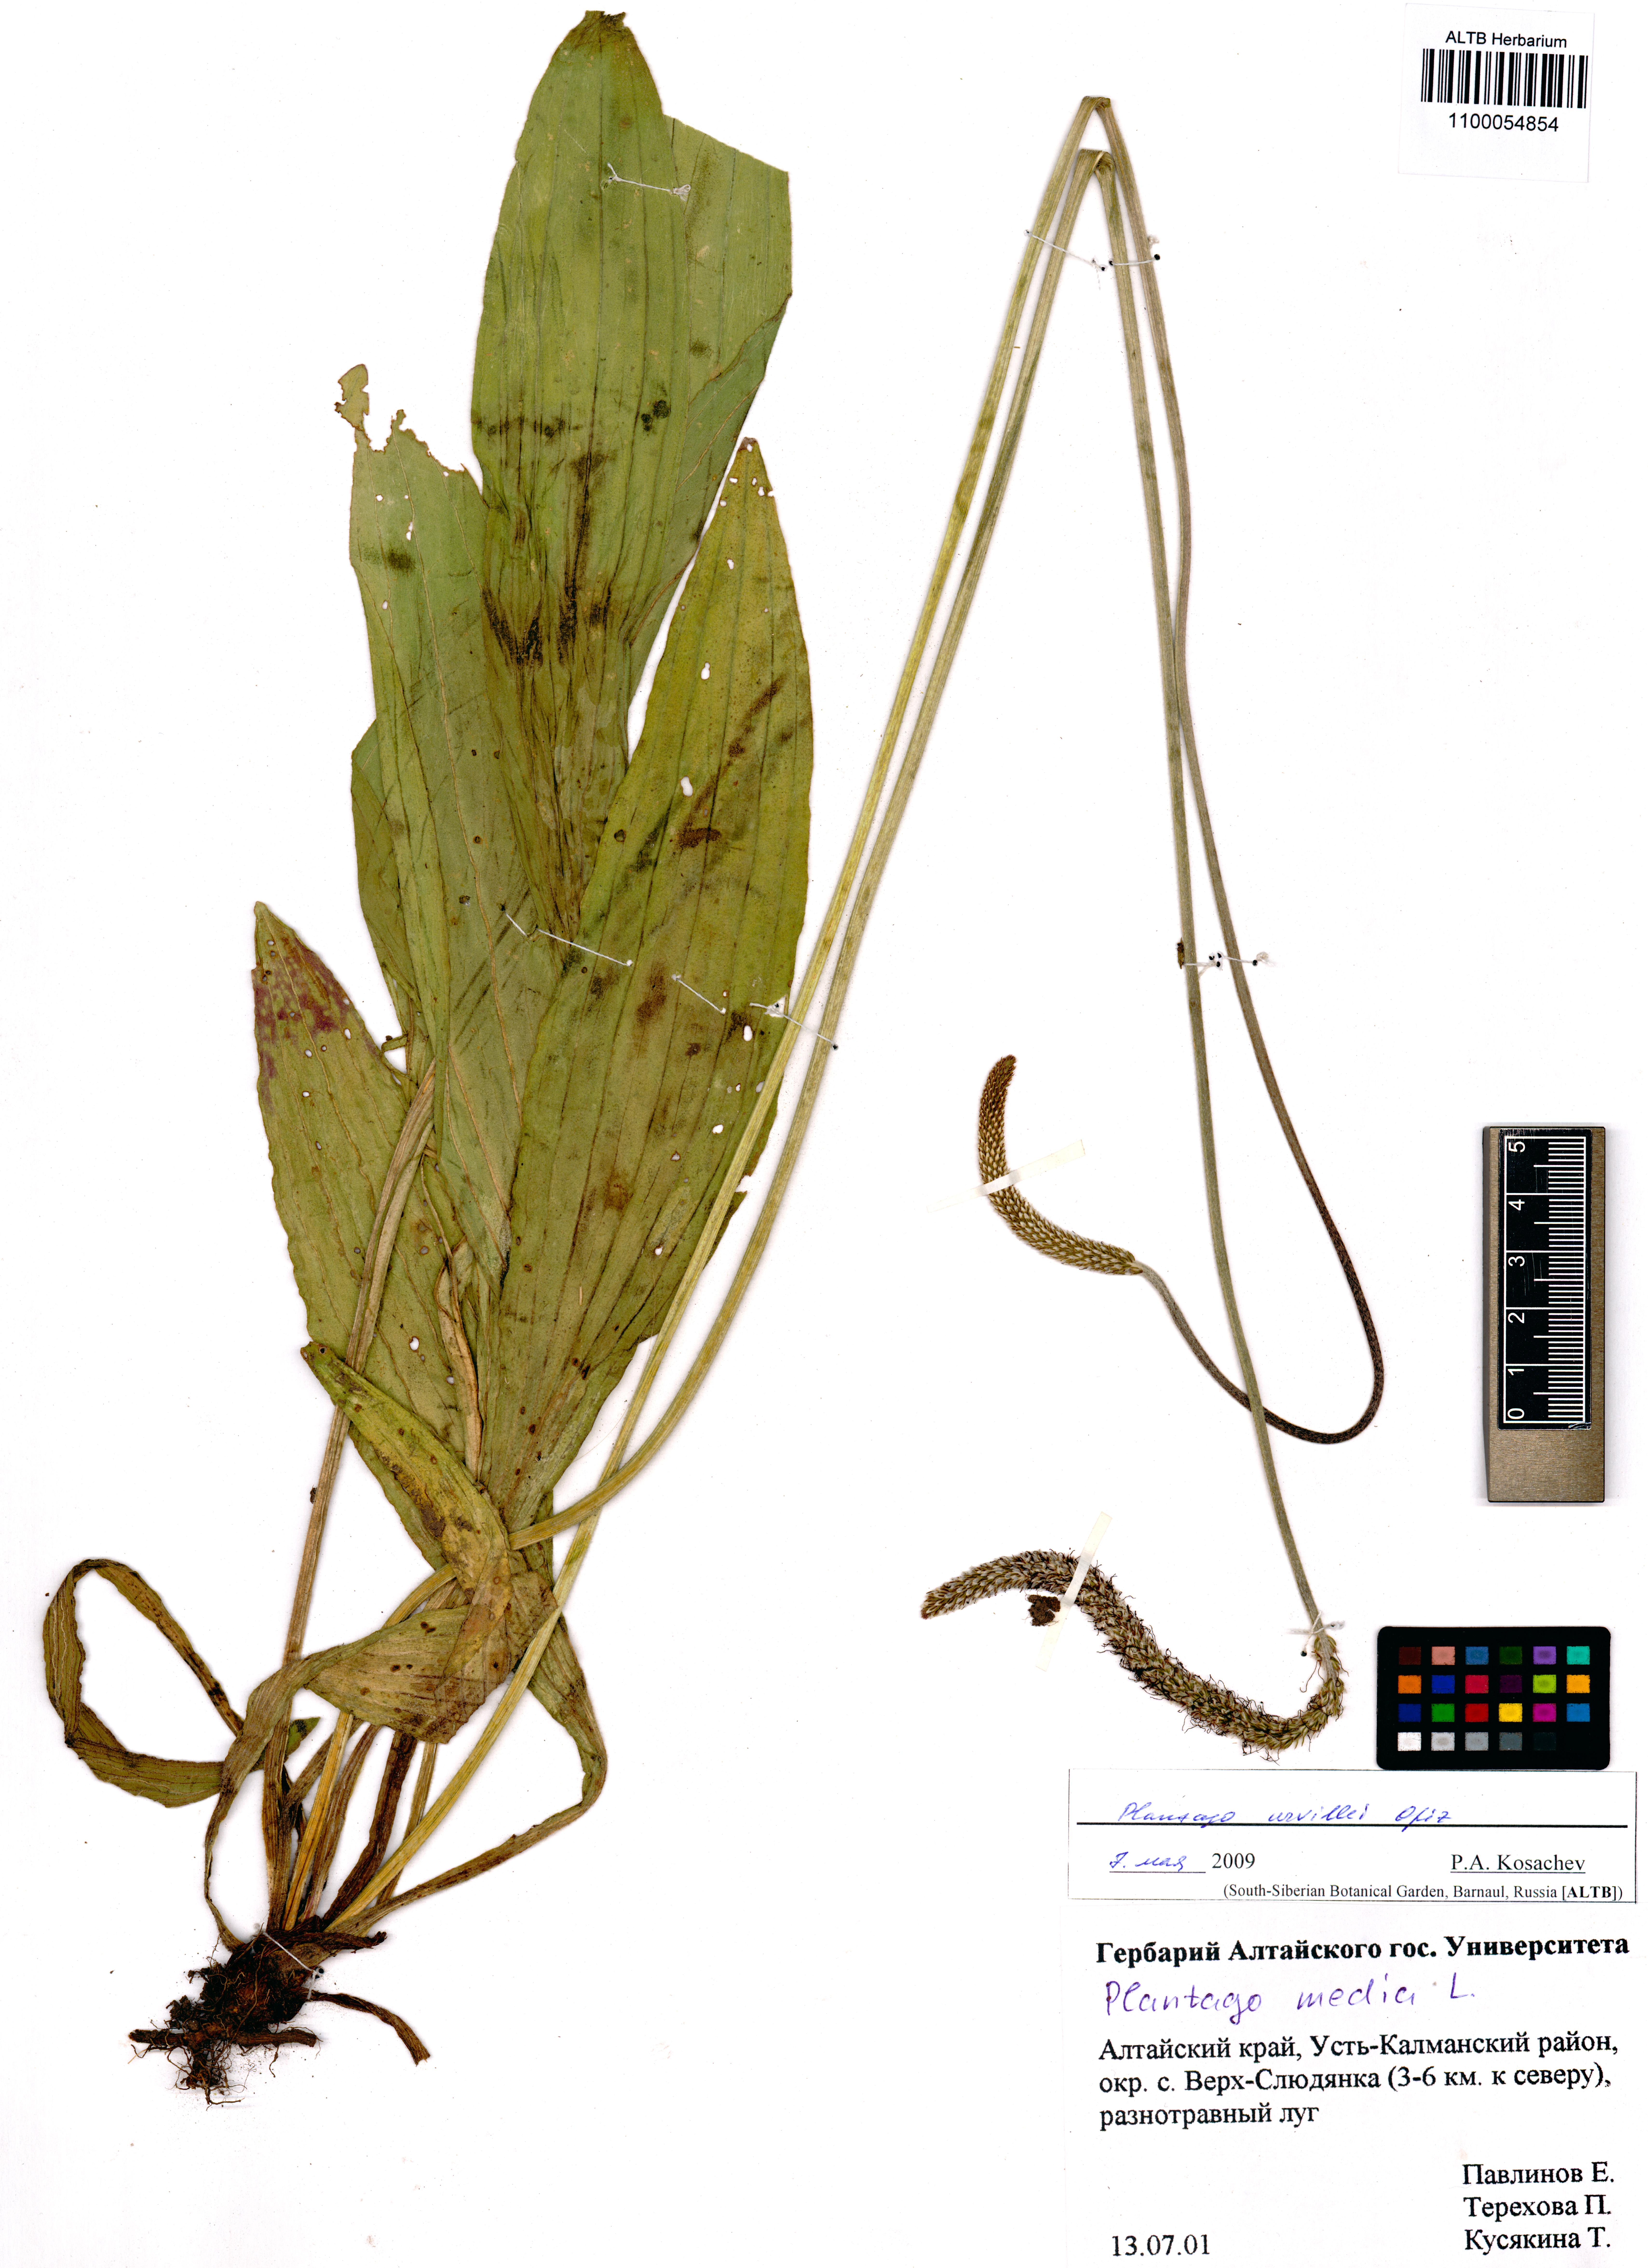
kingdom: Plantae
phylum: Tracheophyta
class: Magnoliopsida
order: Lamiales
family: Plantaginaceae
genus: Plantago
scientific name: Plantago urvillei
